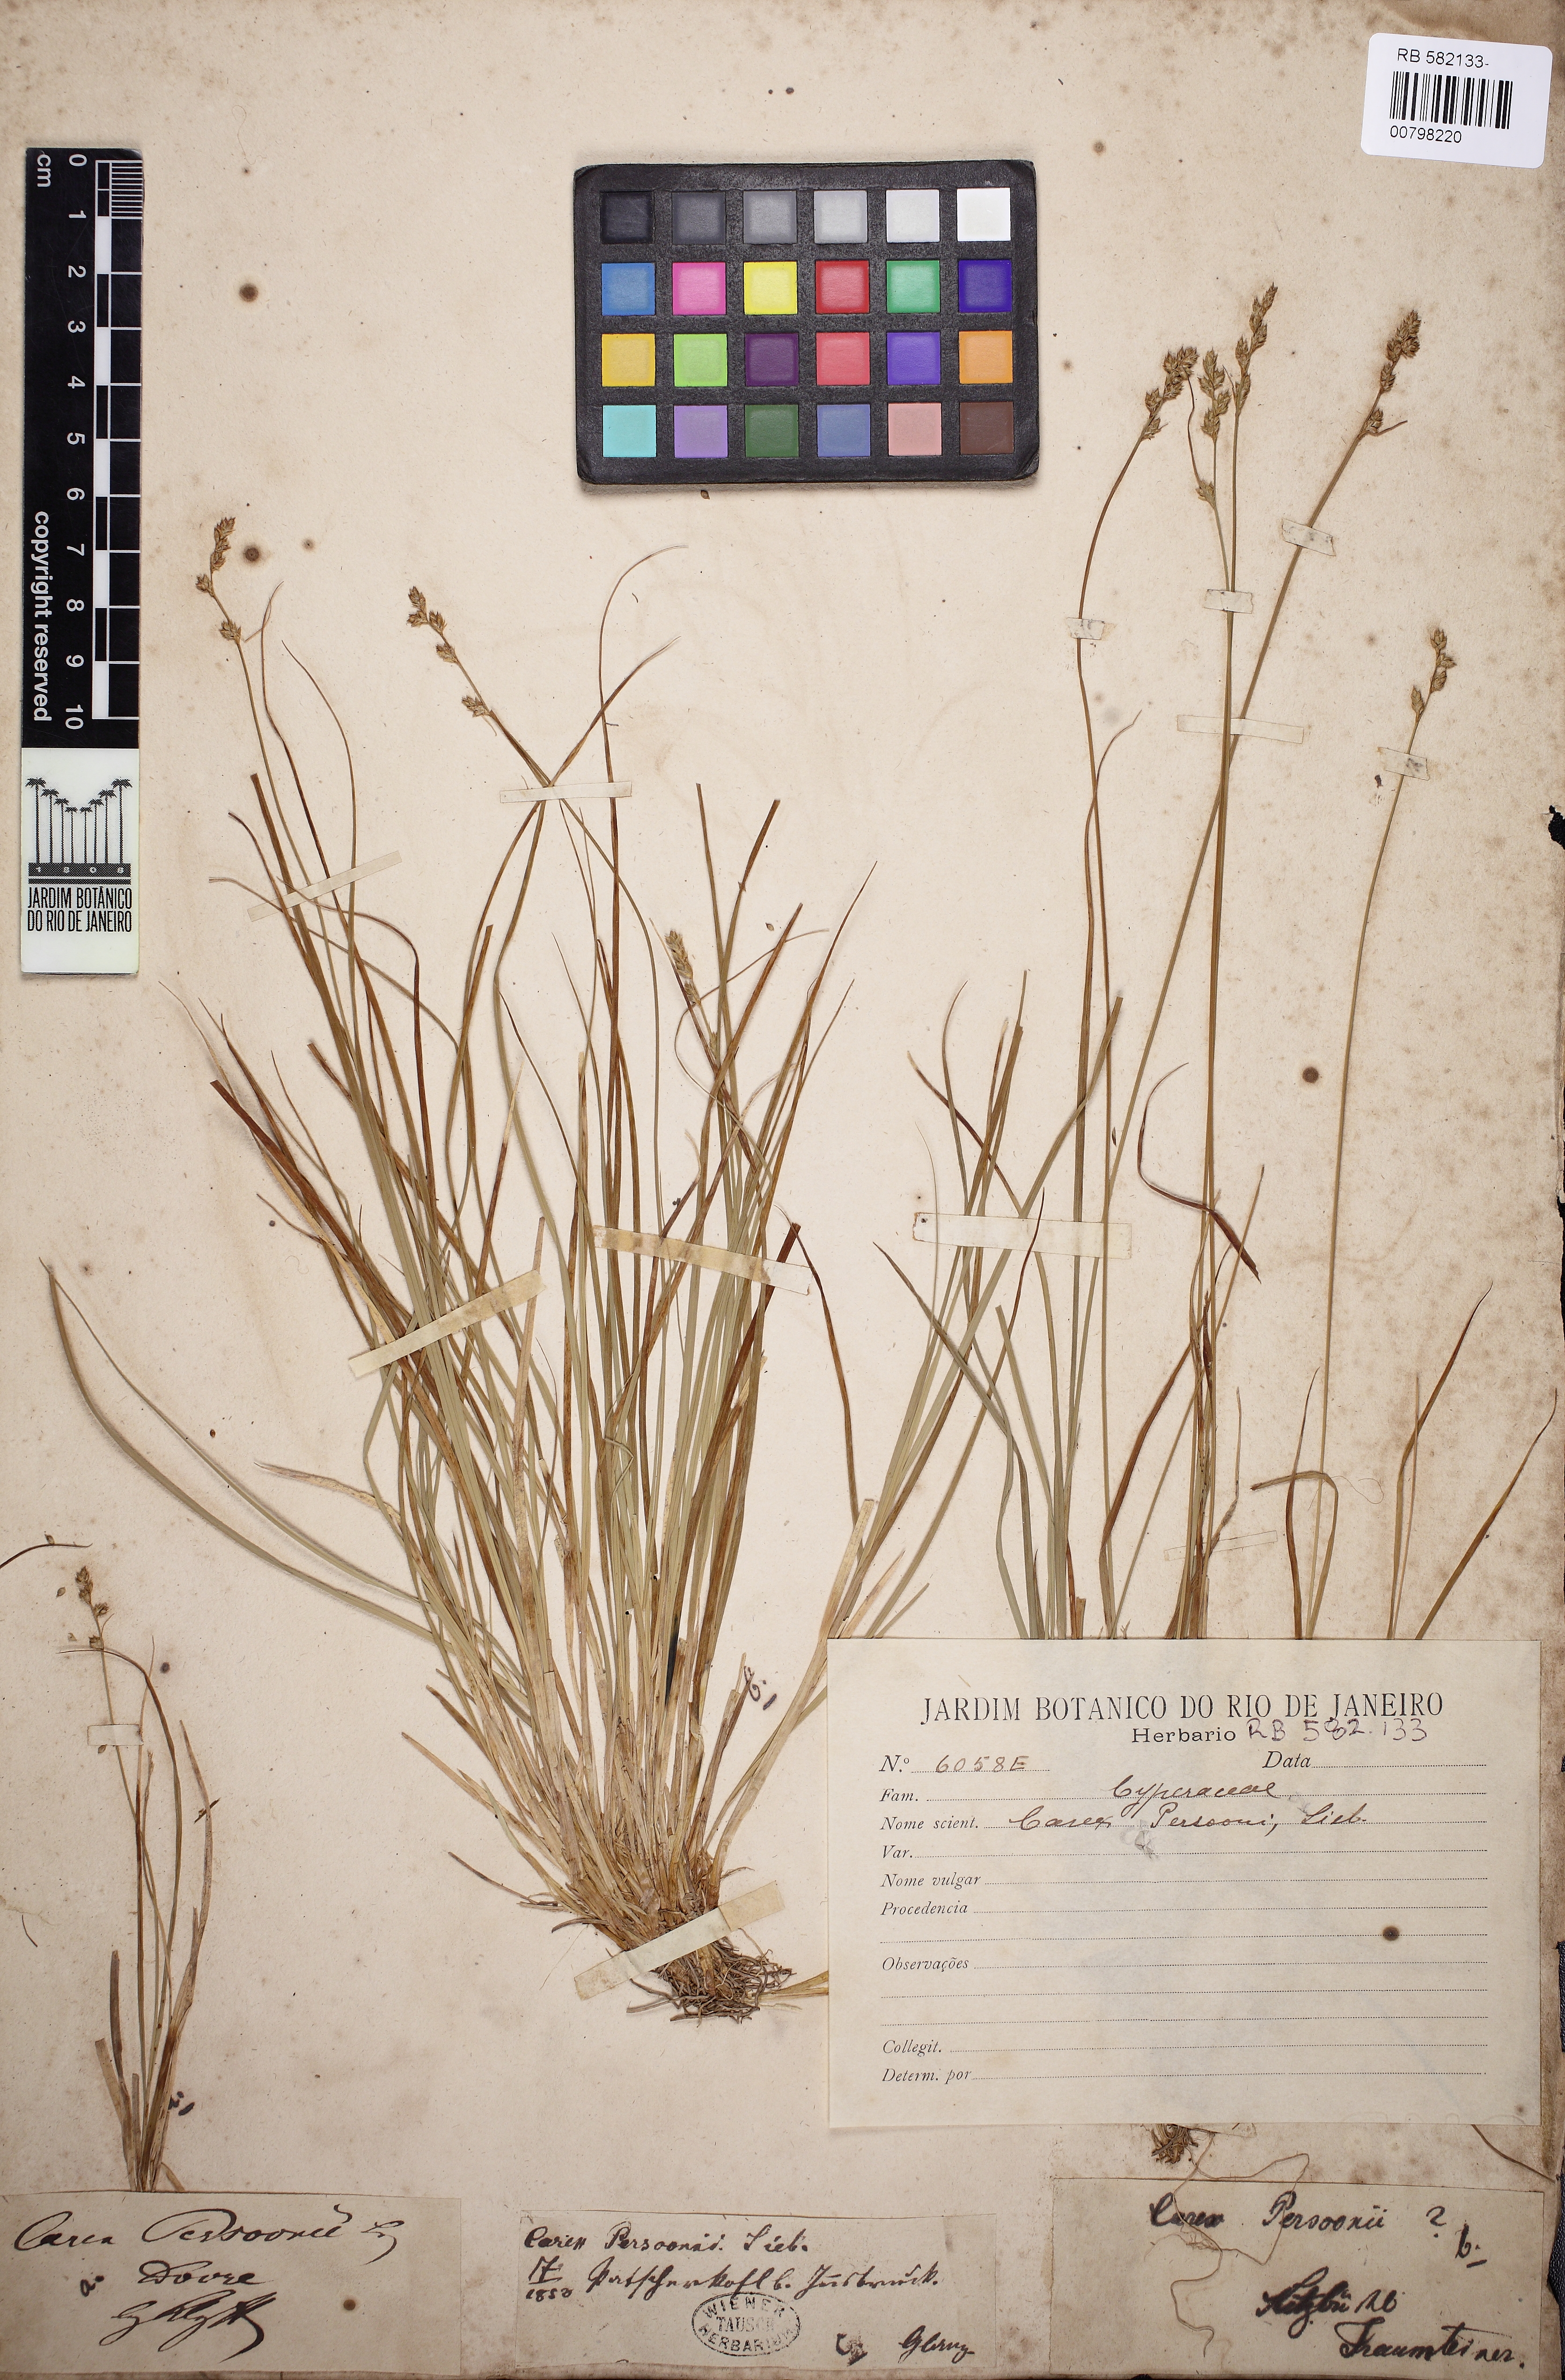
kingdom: Plantae
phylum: Tracheophyta
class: Liliopsida
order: Poales
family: Cyperaceae
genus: Carex
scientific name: Carex
